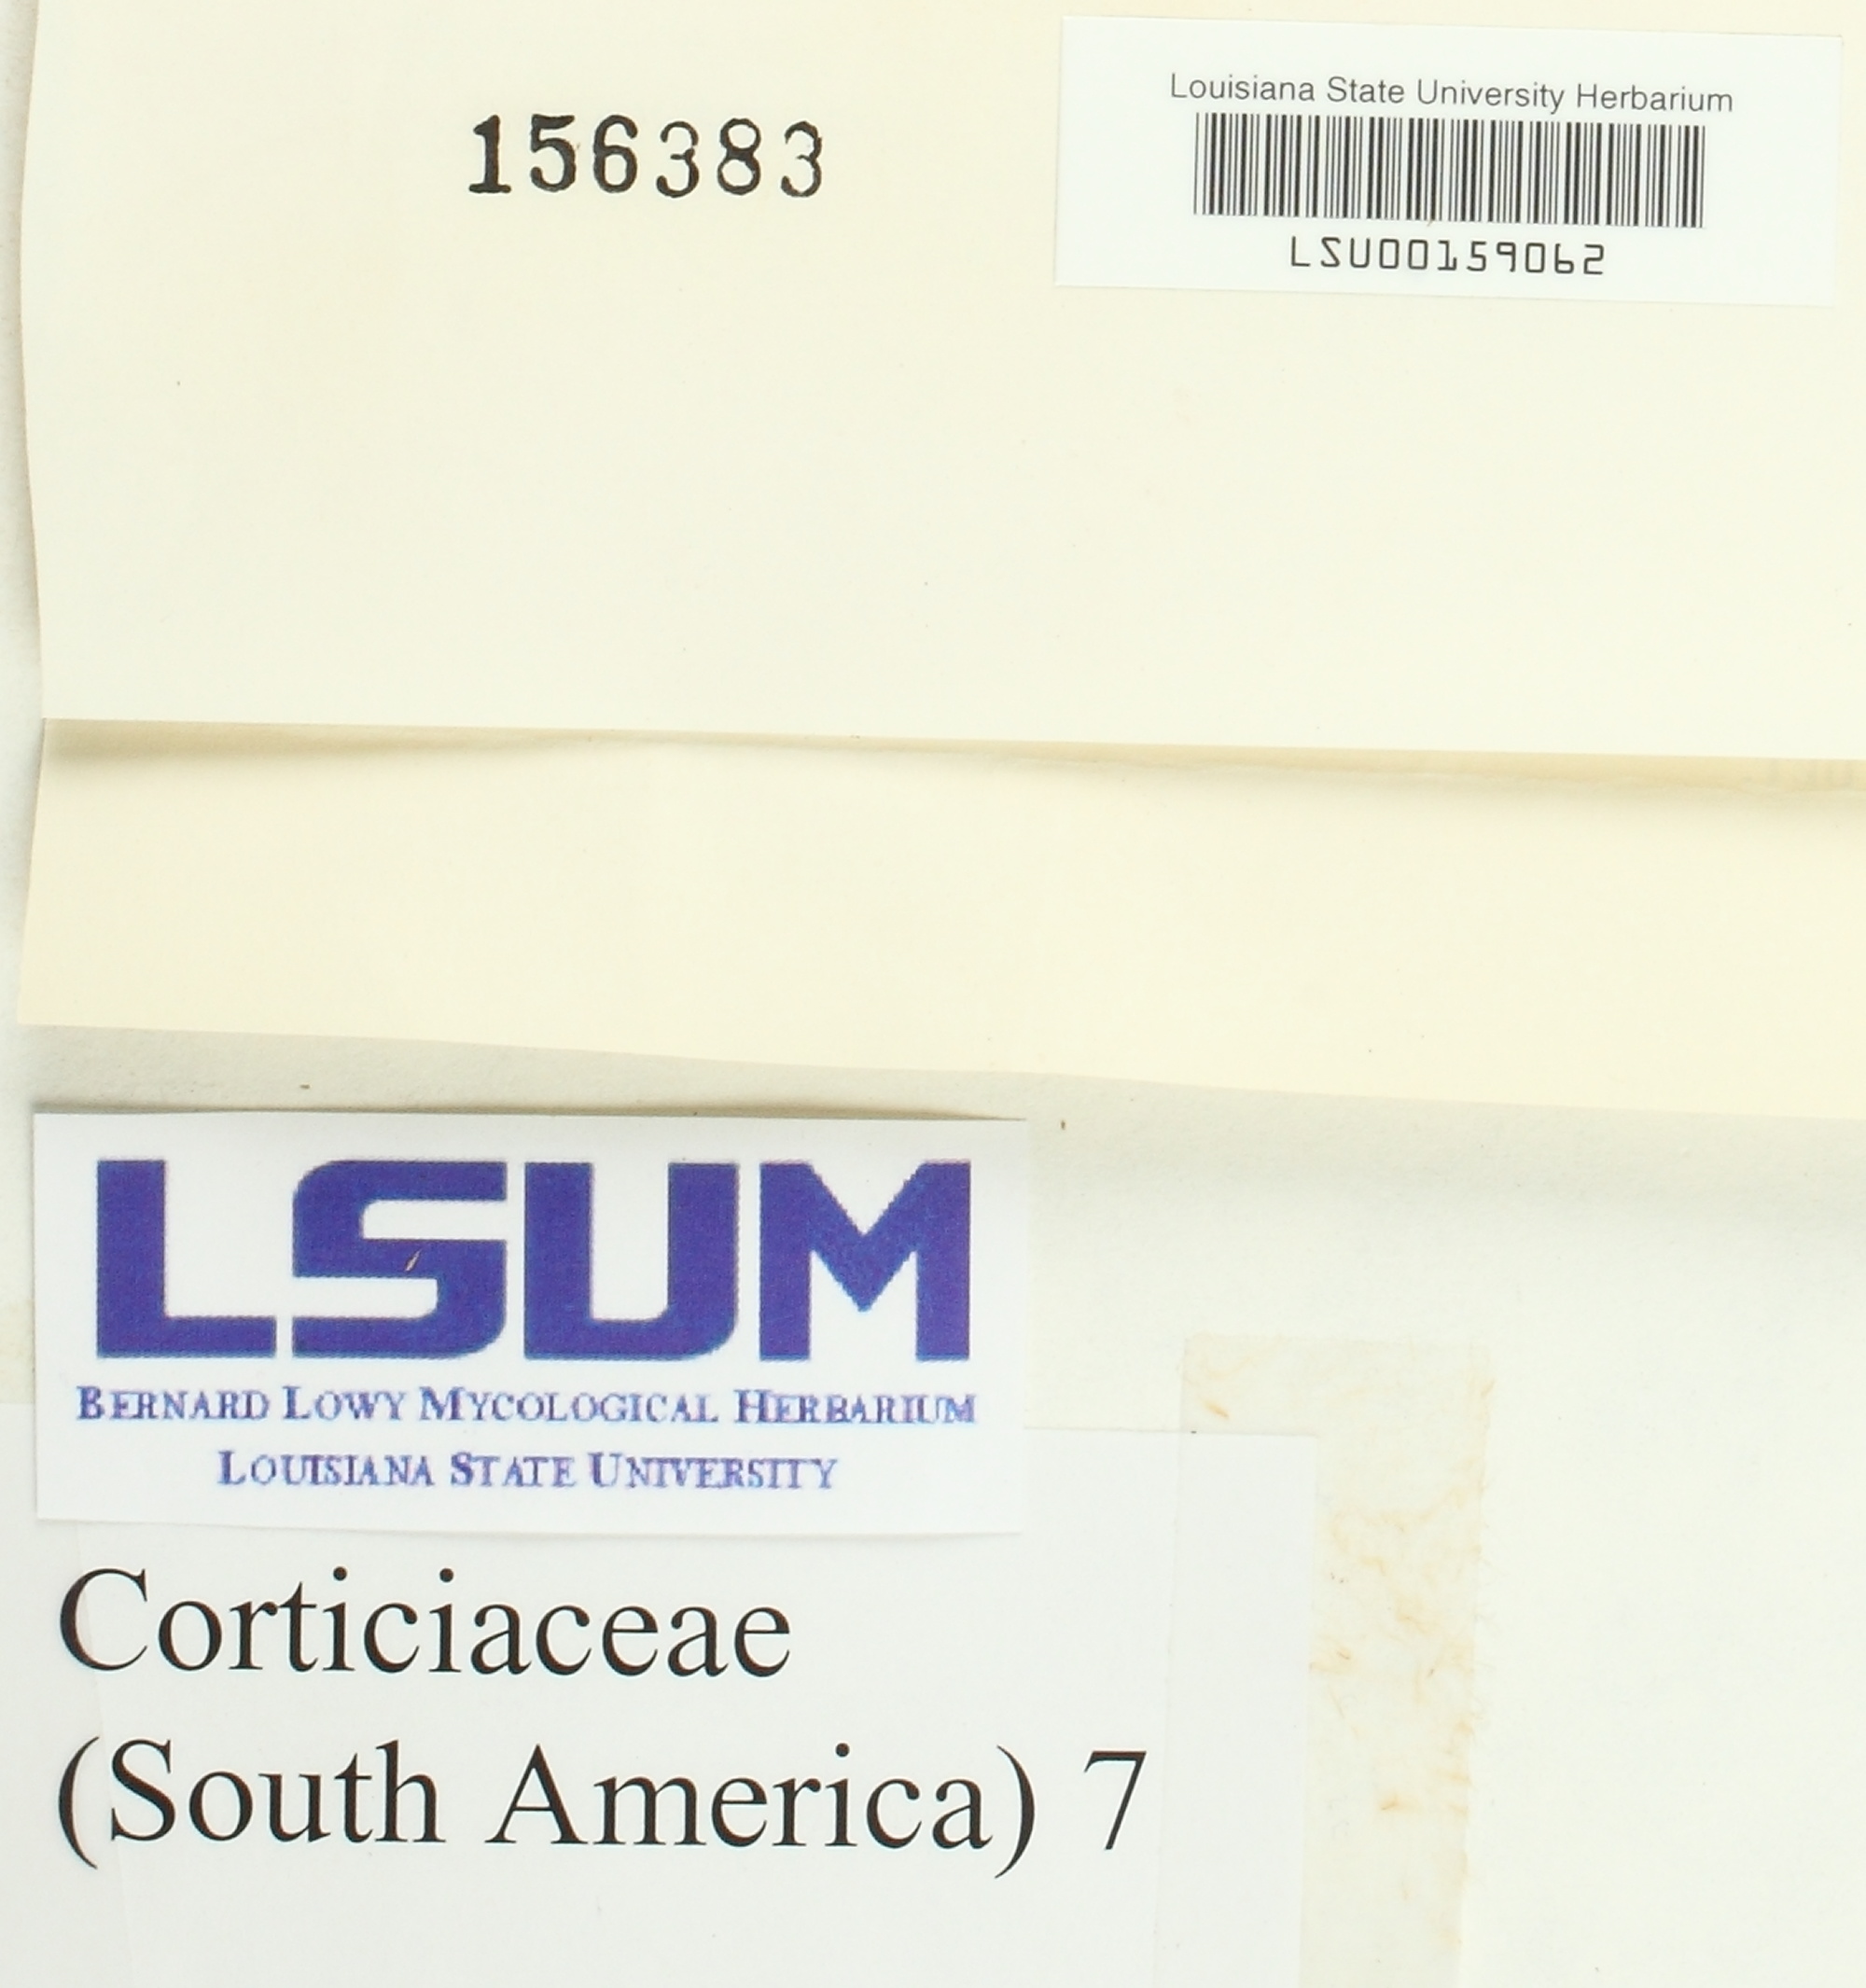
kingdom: Fungi
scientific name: Fungi
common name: Fungi
